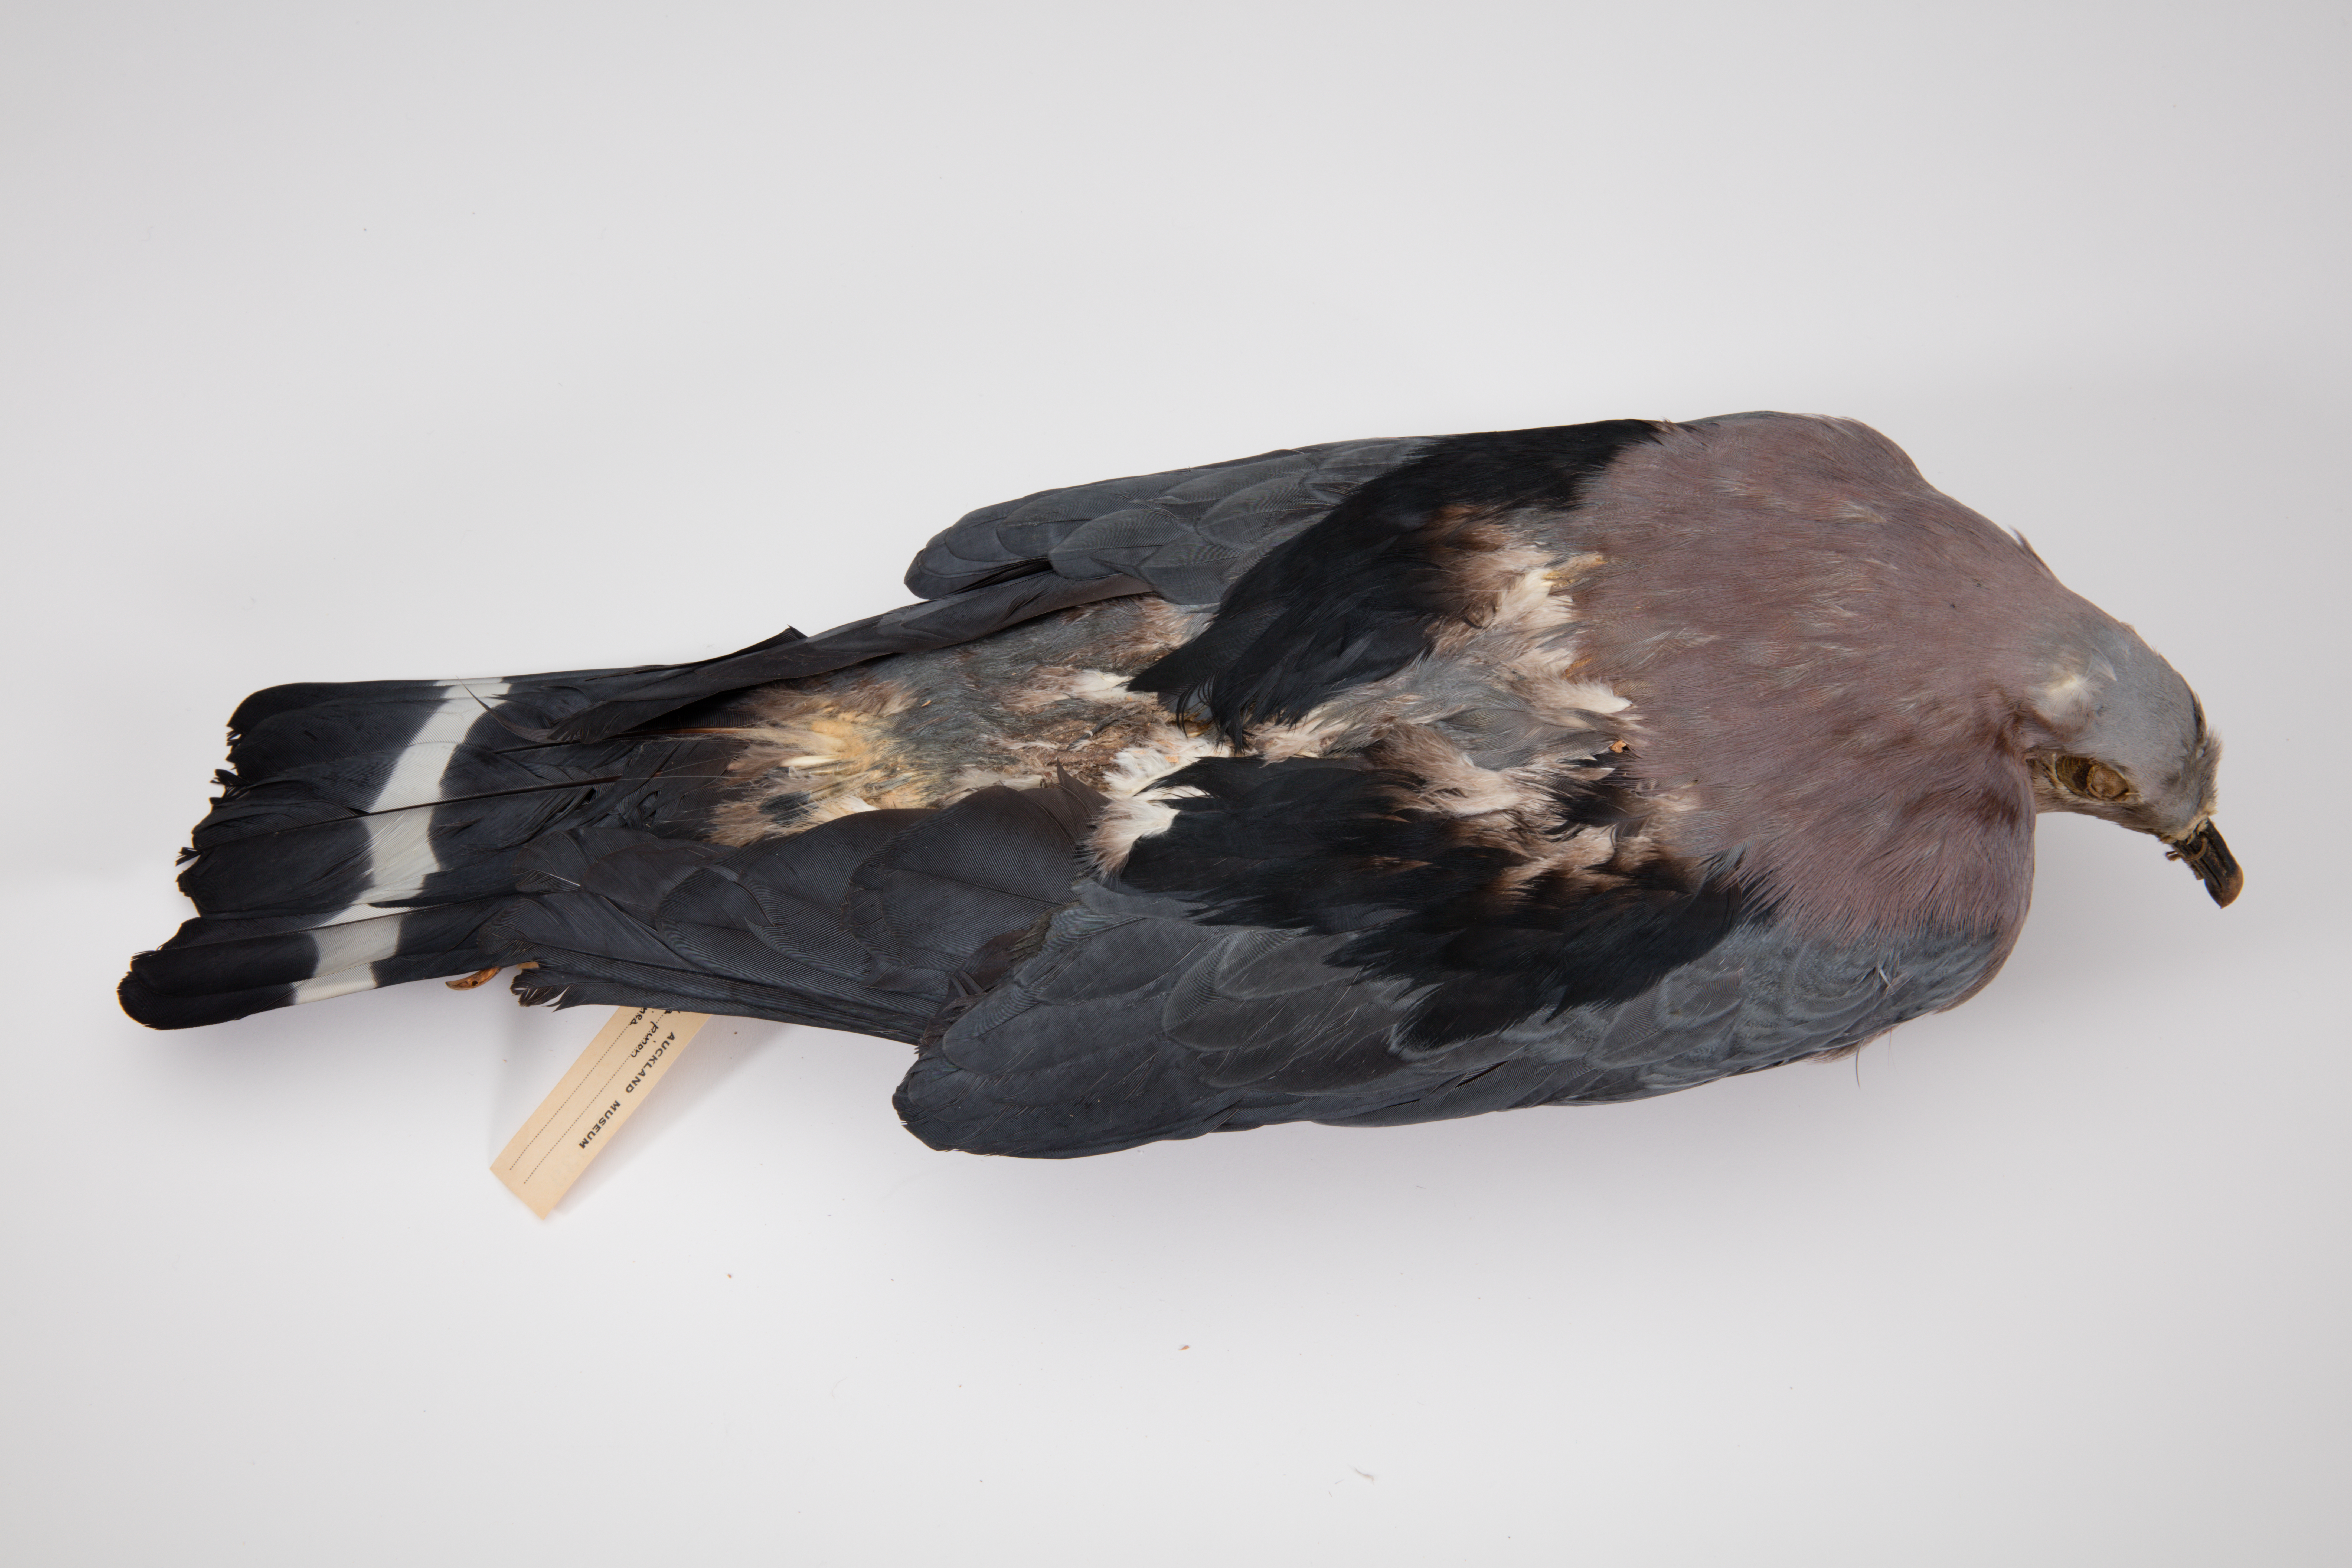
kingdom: Animalia
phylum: Chordata
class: Aves
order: Columbiformes
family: Columbidae
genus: Ducula
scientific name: Ducula pinon
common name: Pinon's imperial pigeon
